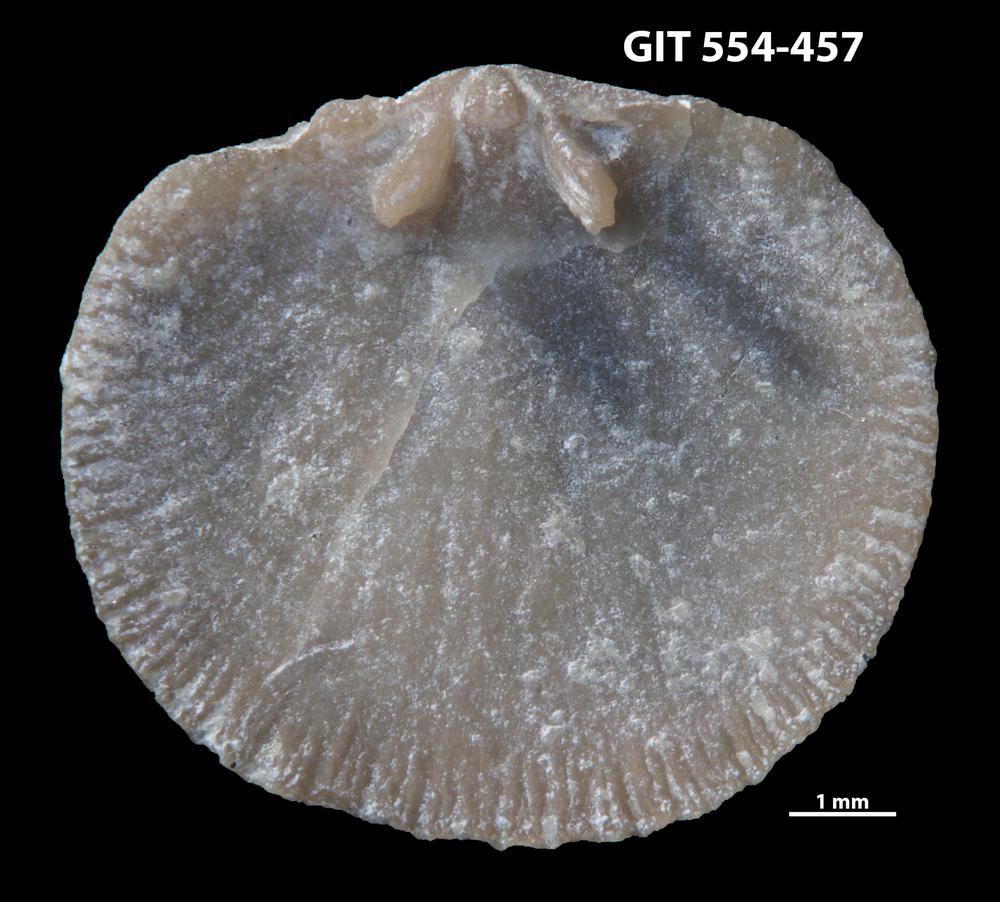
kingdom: Animalia
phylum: Brachiopoda
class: Rhynchonellata
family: Dalmanellidae
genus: Onniella
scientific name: Onniella trigona
